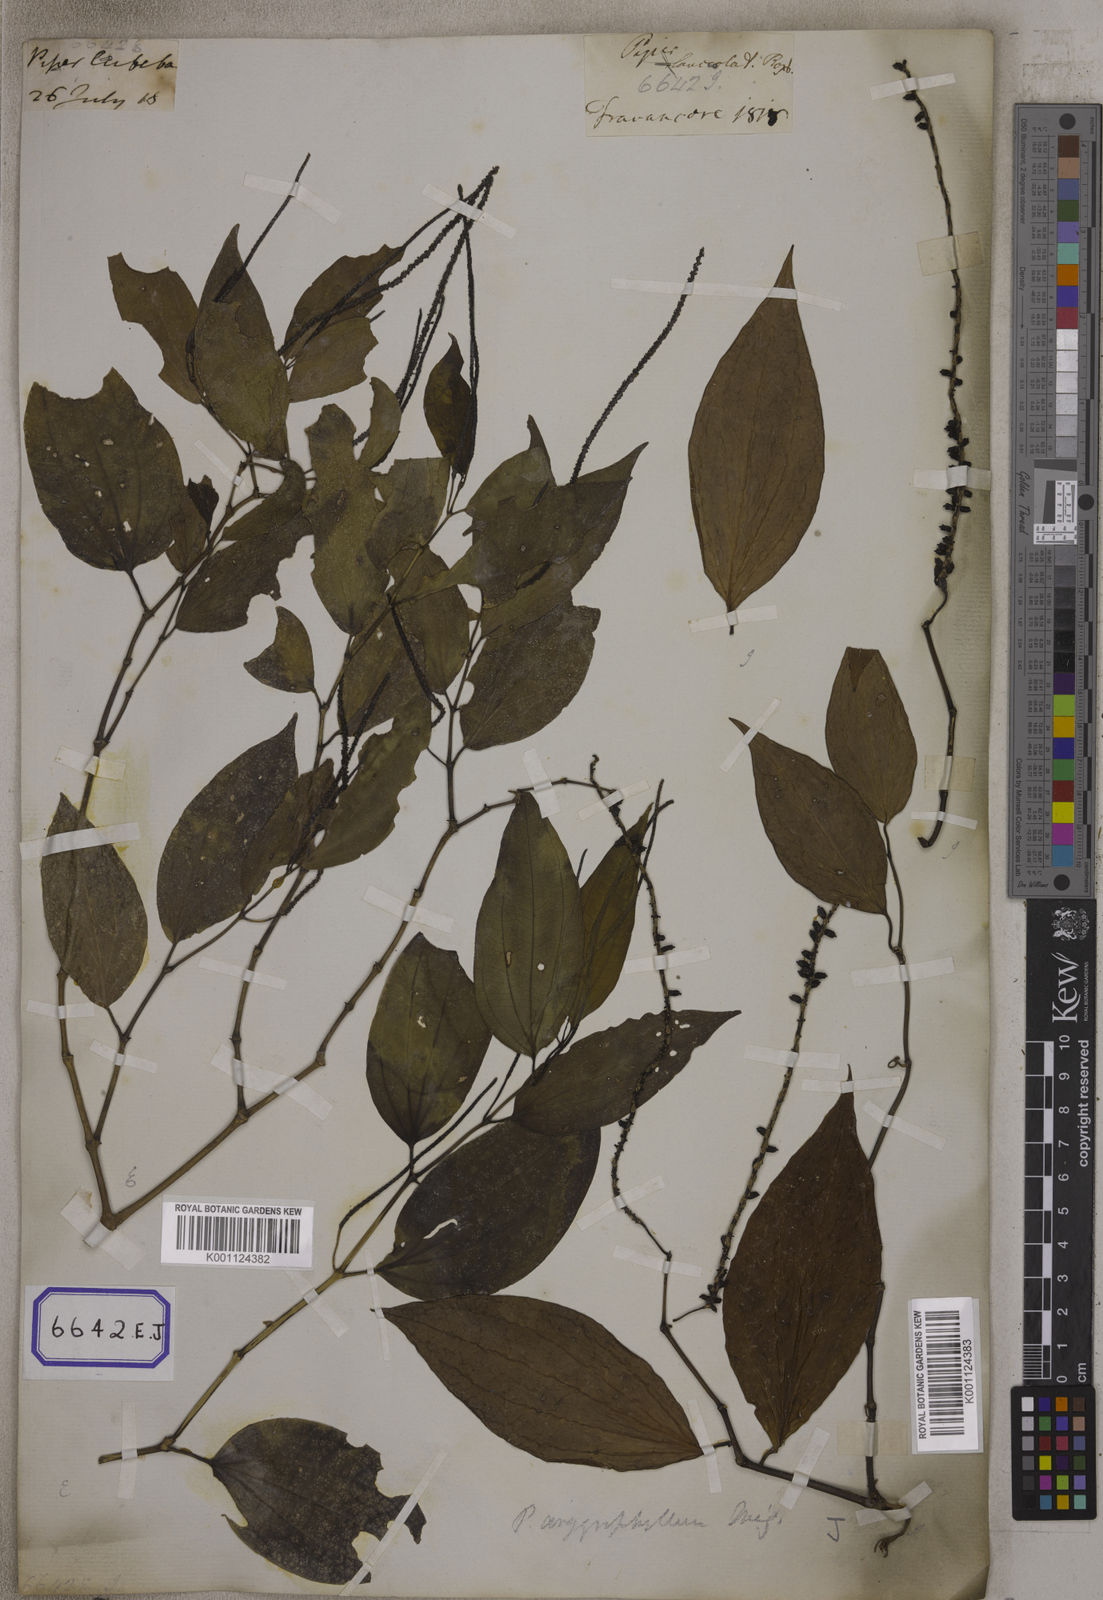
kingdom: Plantae
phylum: Tracheophyta
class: Magnoliopsida
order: Piperales
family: Piperaceae
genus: Piper
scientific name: Piper
